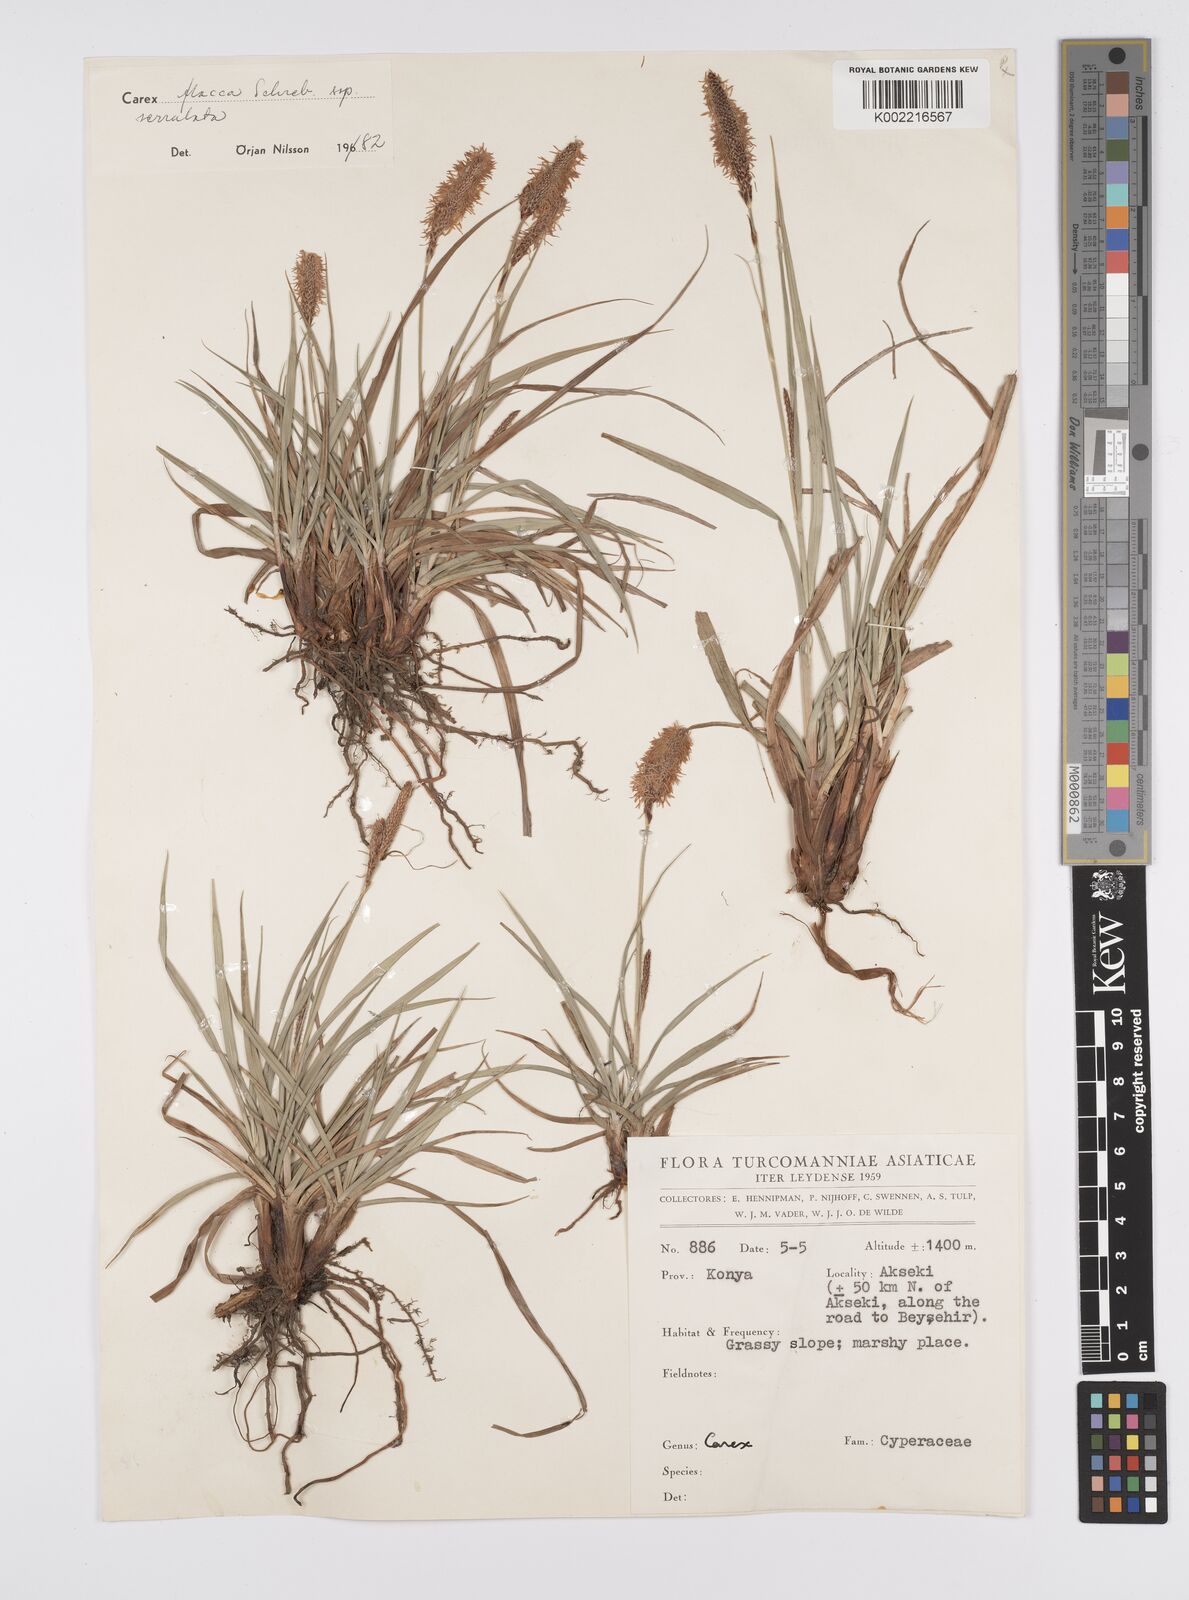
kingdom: Plantae
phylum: Tracheophyta
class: Liliopsida
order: Poales
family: Cyperaceae
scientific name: Cyperaceae
